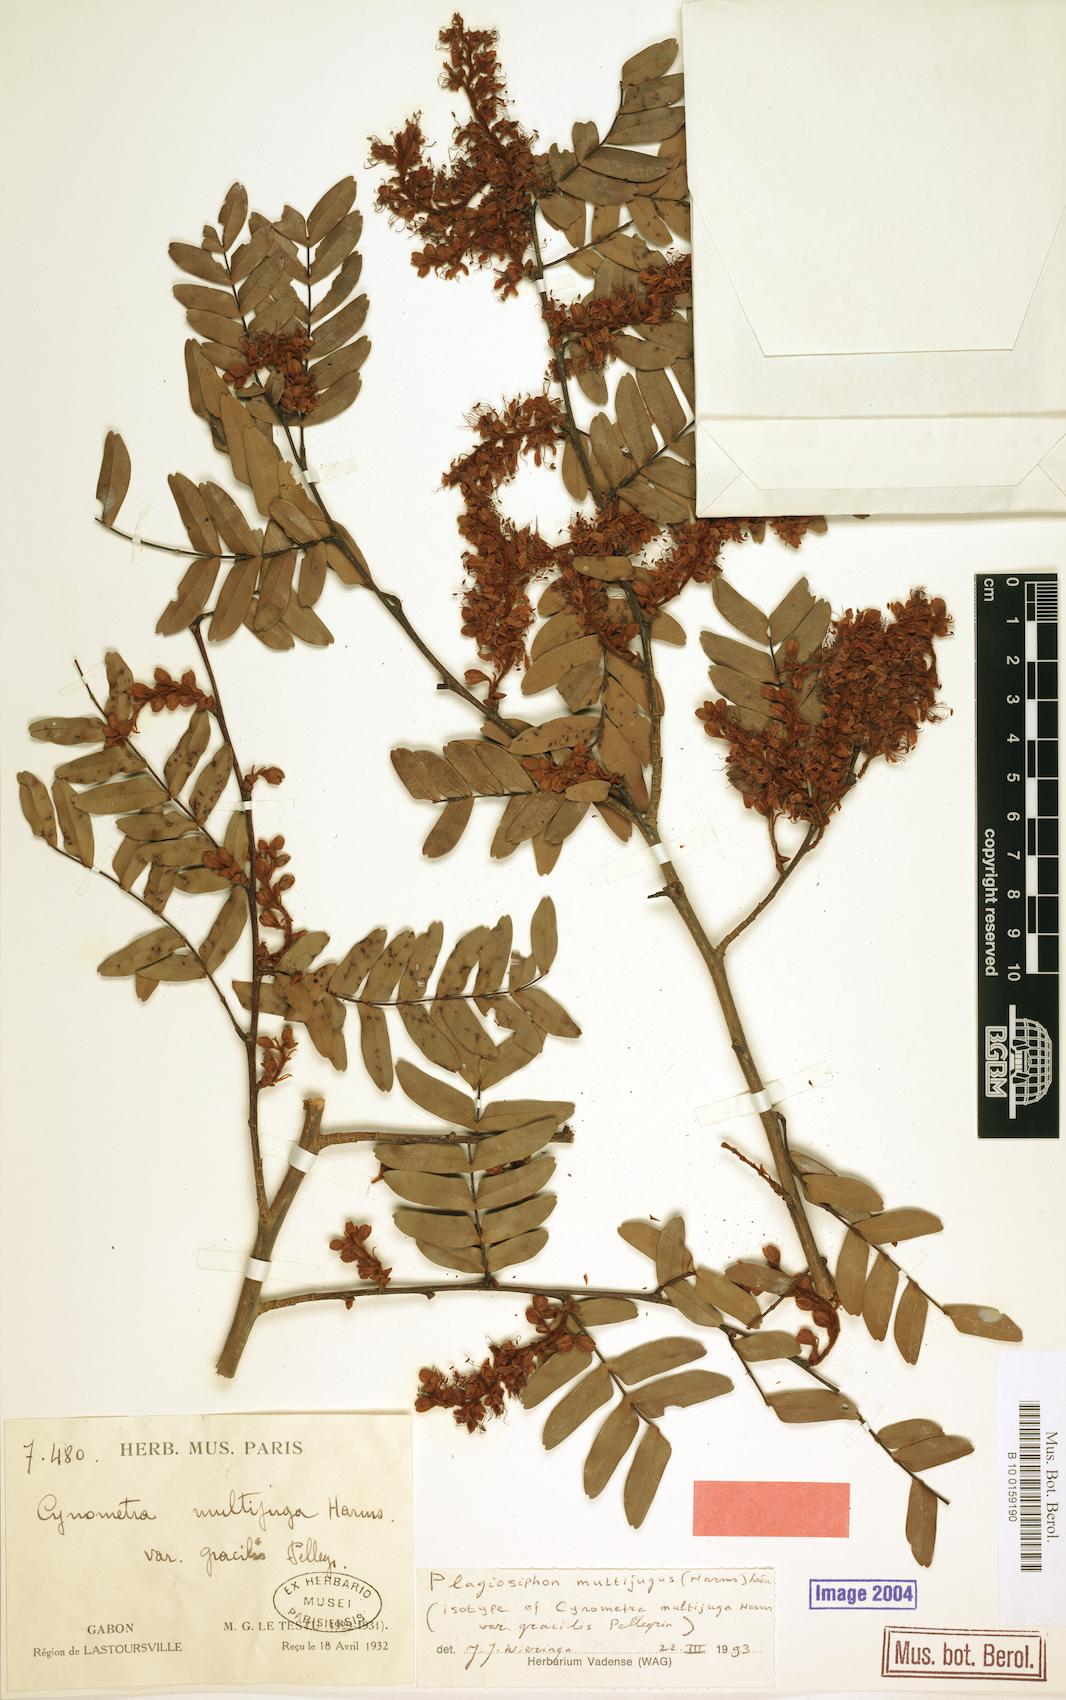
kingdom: Plantae
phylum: Tracheophyta
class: Magnoliopsida
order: Fabales
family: Fabaceae
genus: Plagiosiphon
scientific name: Plagiosiphon multijugus
